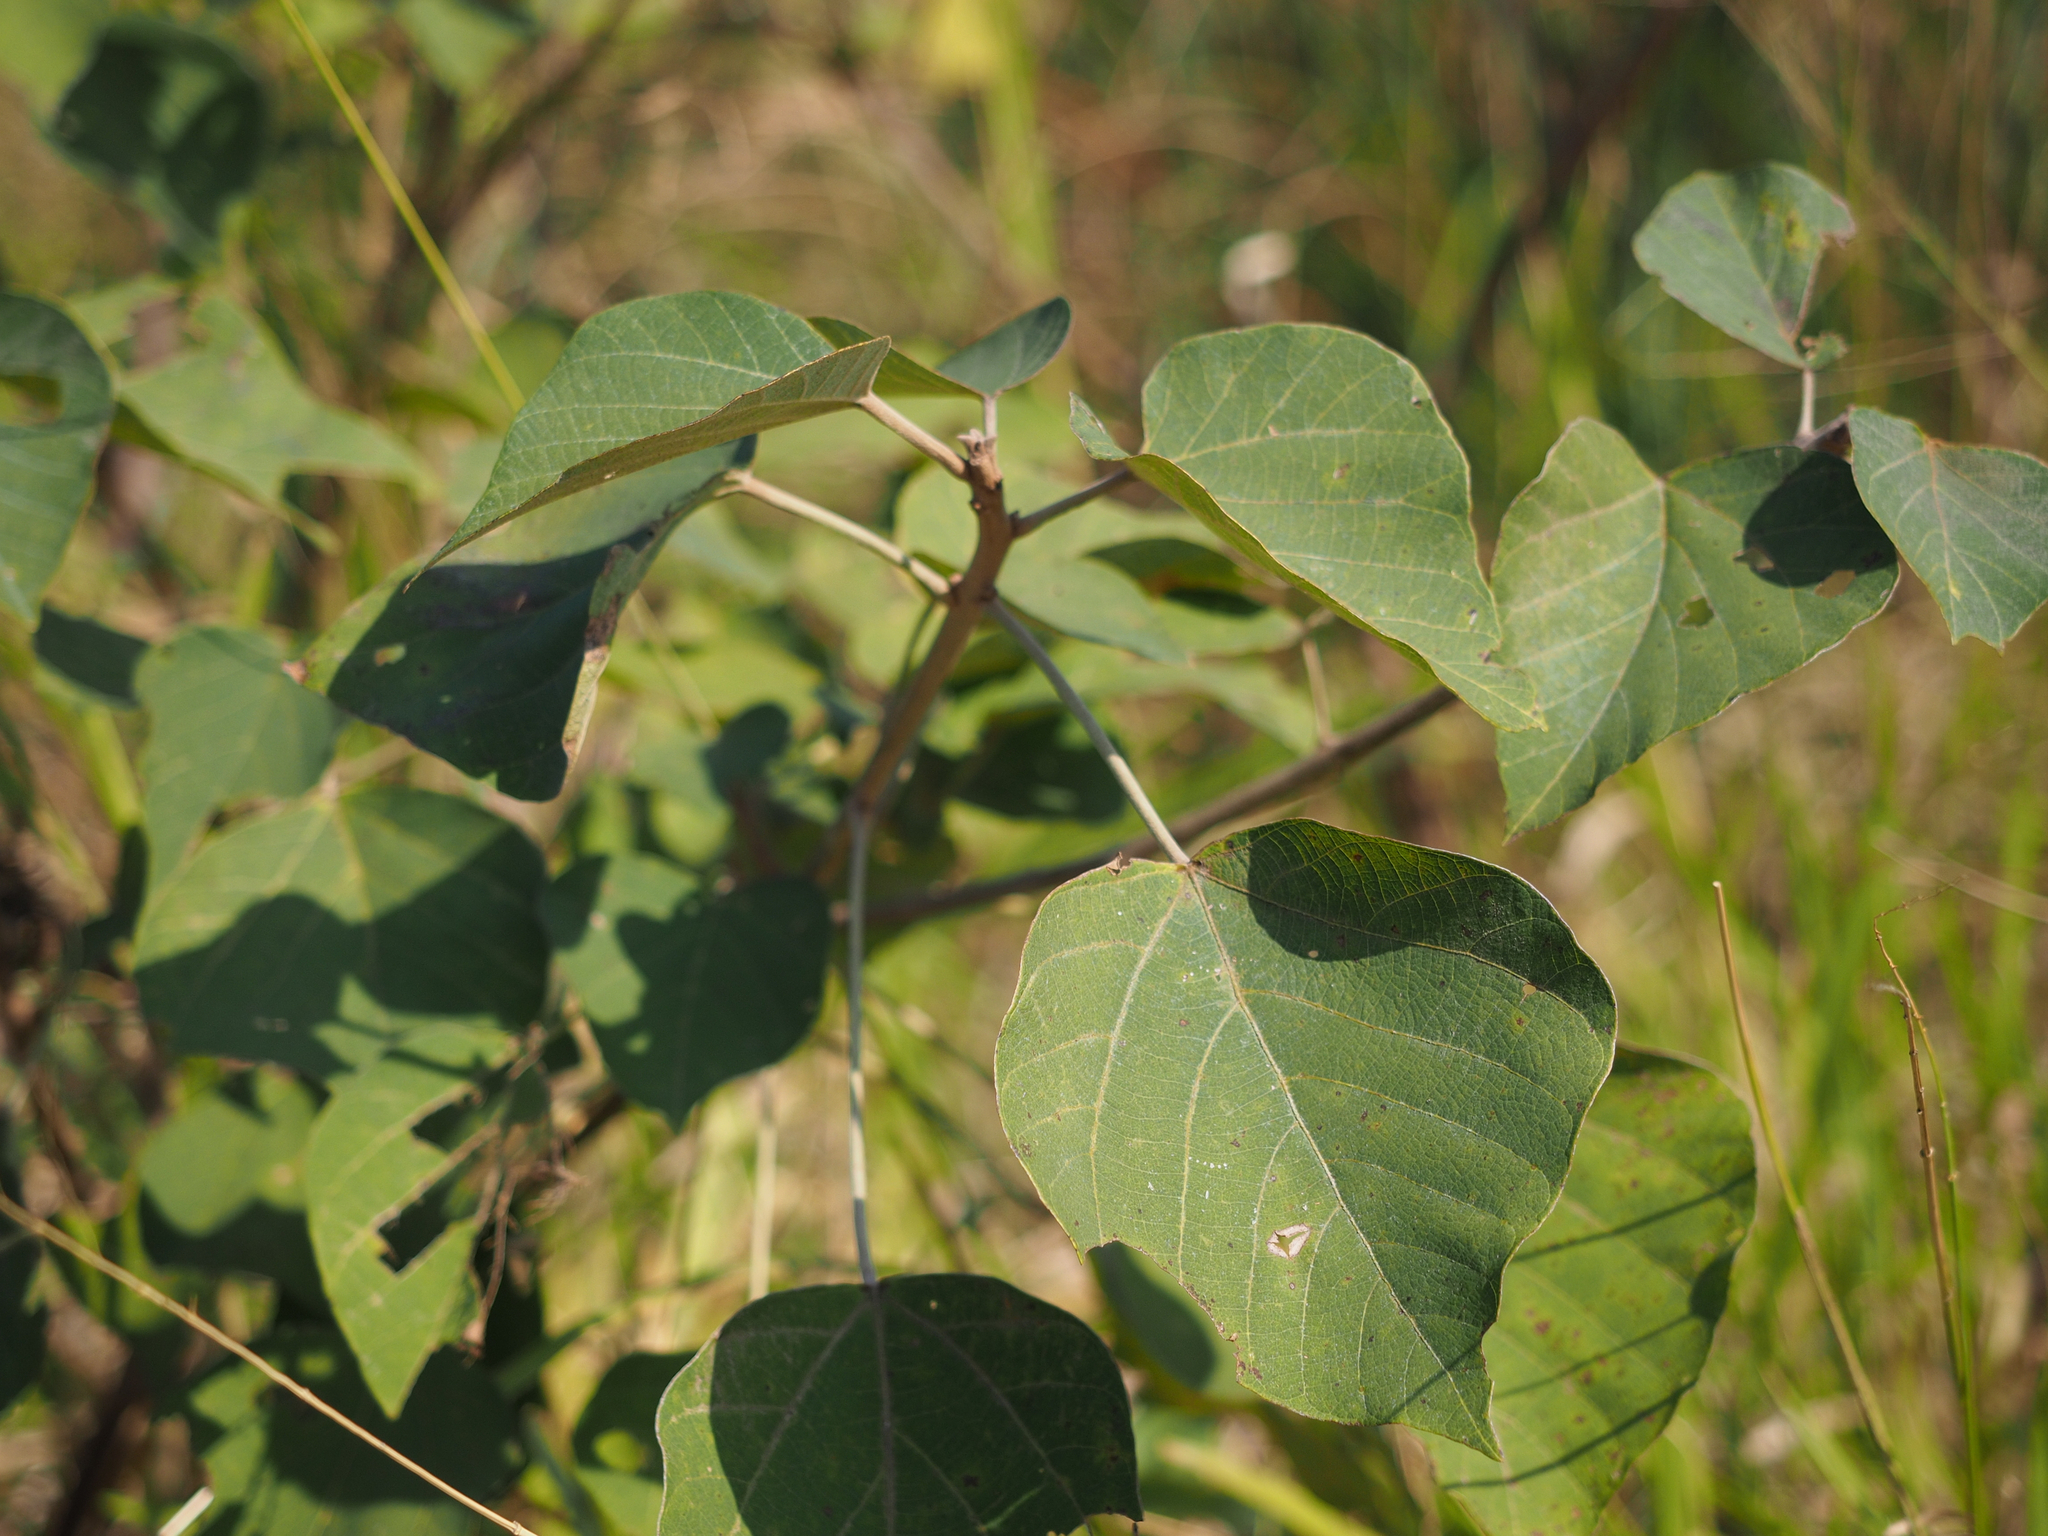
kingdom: Plantae
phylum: Tracheophyta
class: Magnoliopsida
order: Malpighiales
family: Euphorbiaceae
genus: Mallotus
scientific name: Mallotus paniculatus
